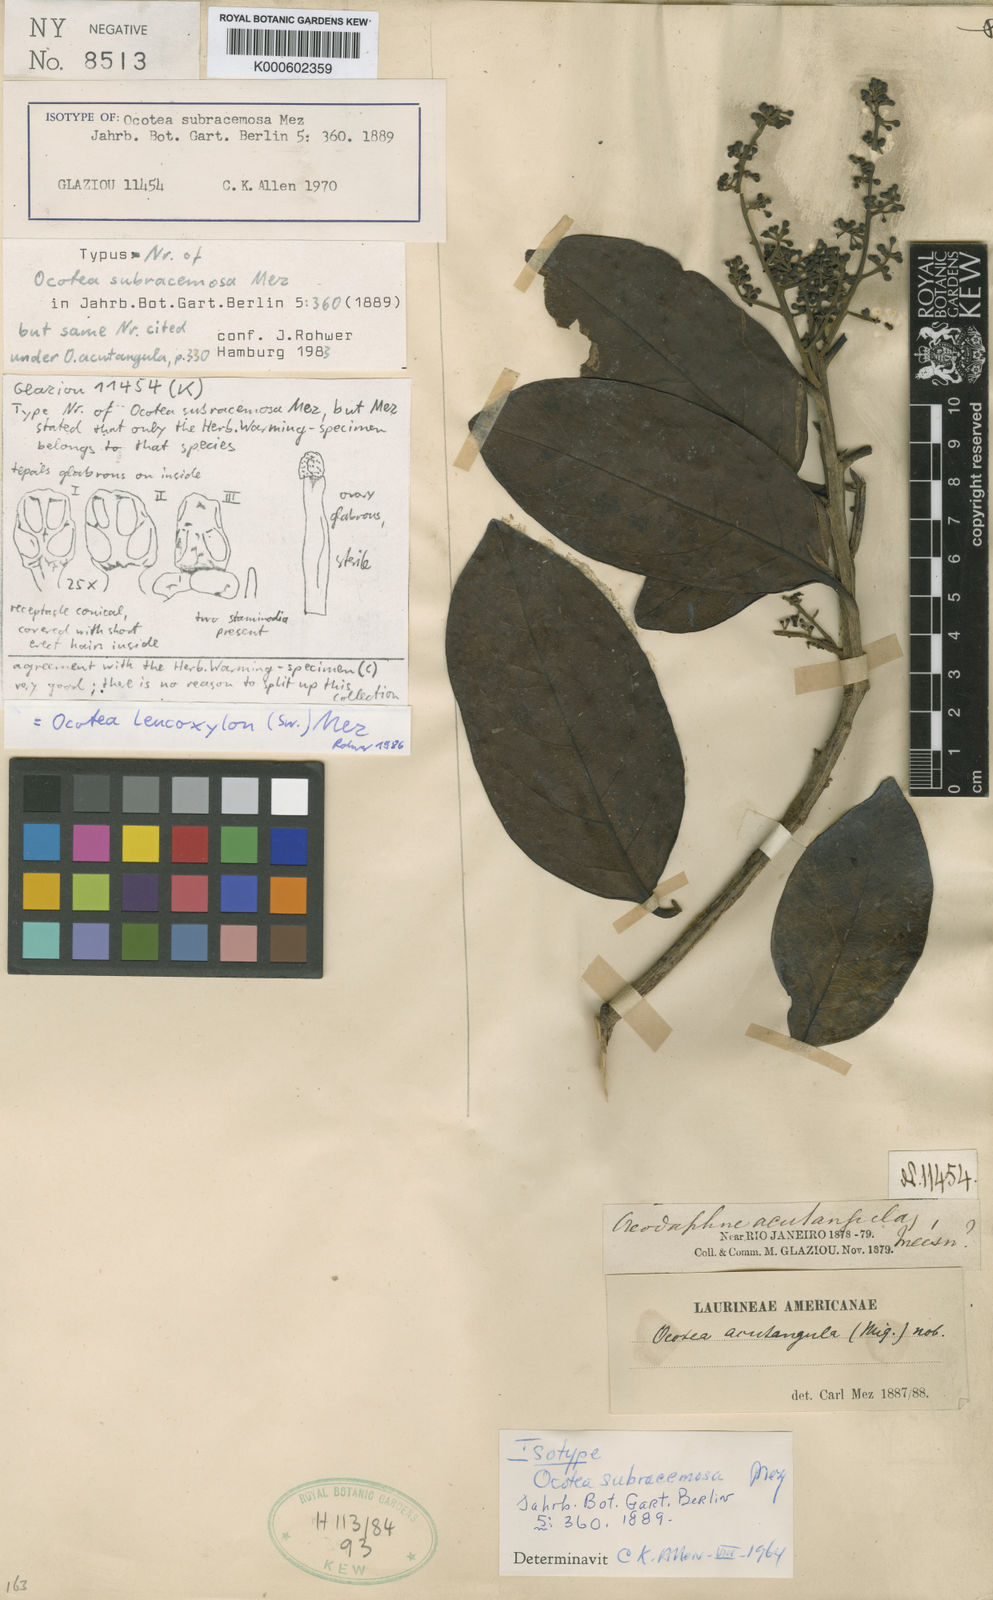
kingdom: Plantae
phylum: Tracheophyta
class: Magnoliopsida
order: Laurales
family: Lauraceae
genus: Ocotea
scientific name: Ocotea leucoxylon
